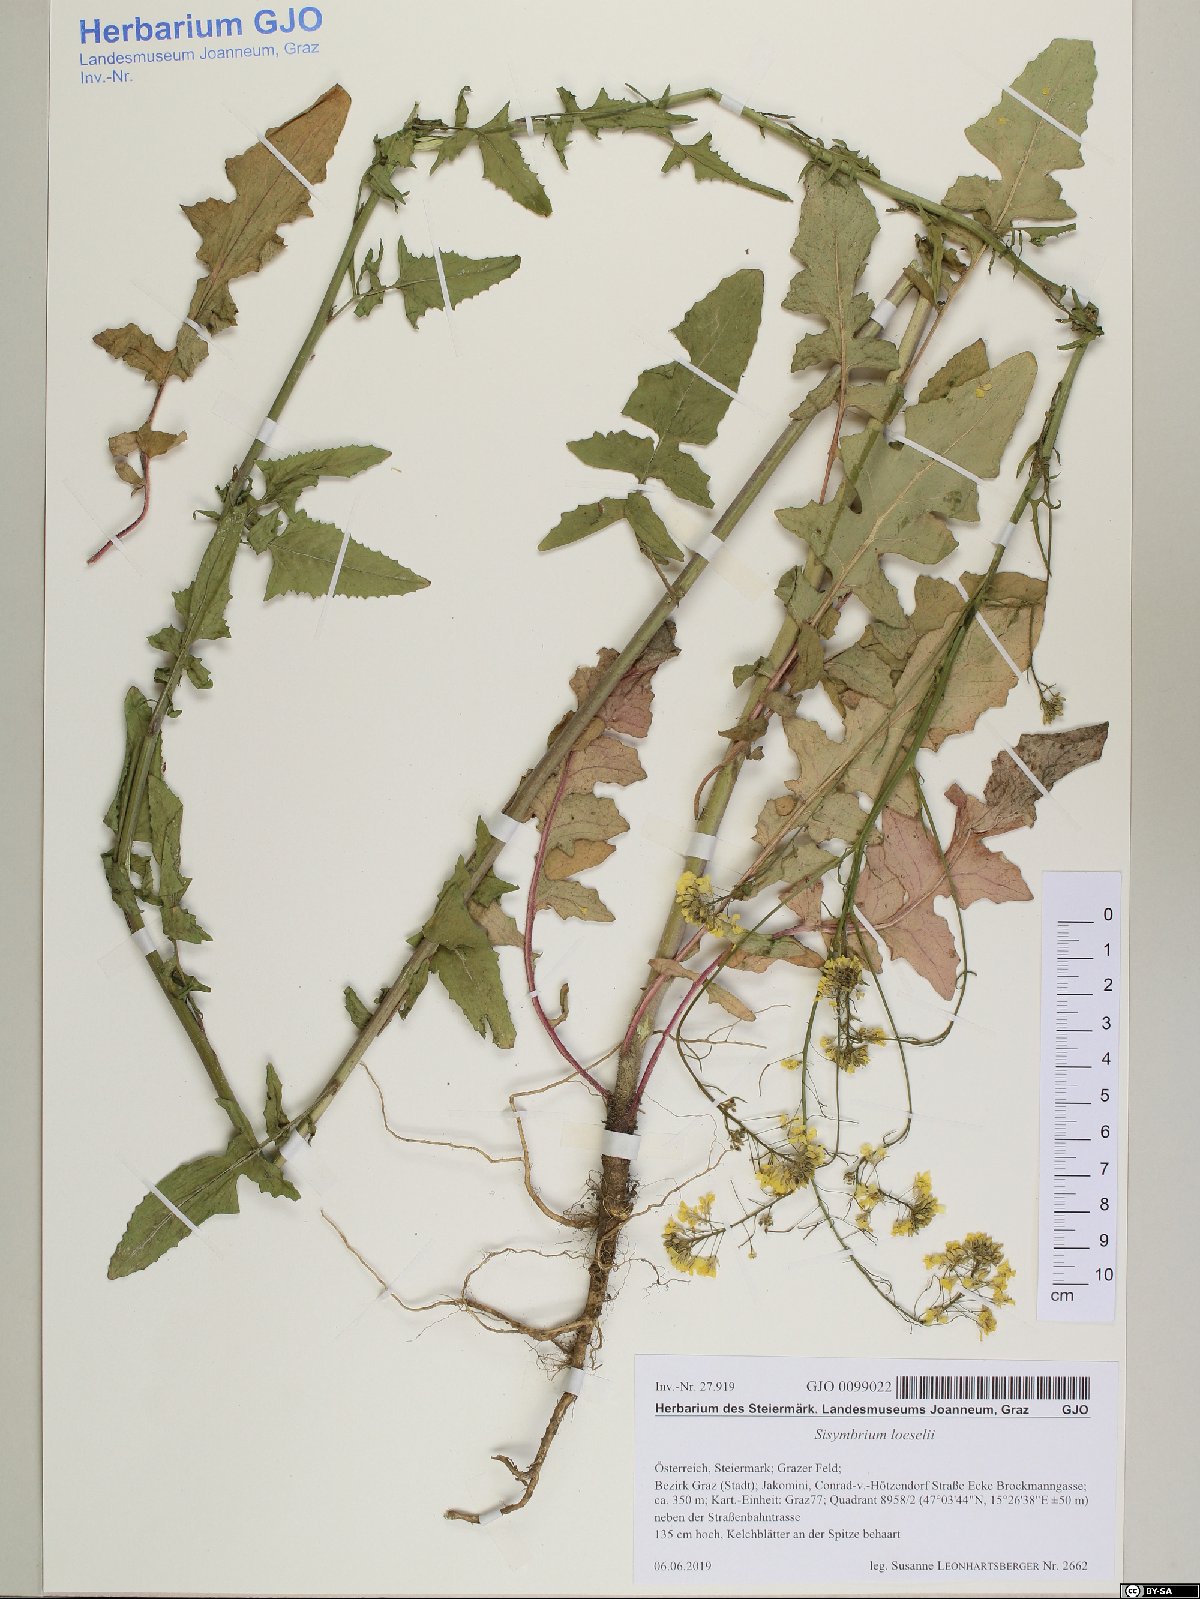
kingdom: Plantae
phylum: Tracheophyta
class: Magnoliopsida
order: Brassicales
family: Brassicaceae
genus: Sisymbrium
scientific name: Sisymbrium loeselii
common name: False london-rocket
